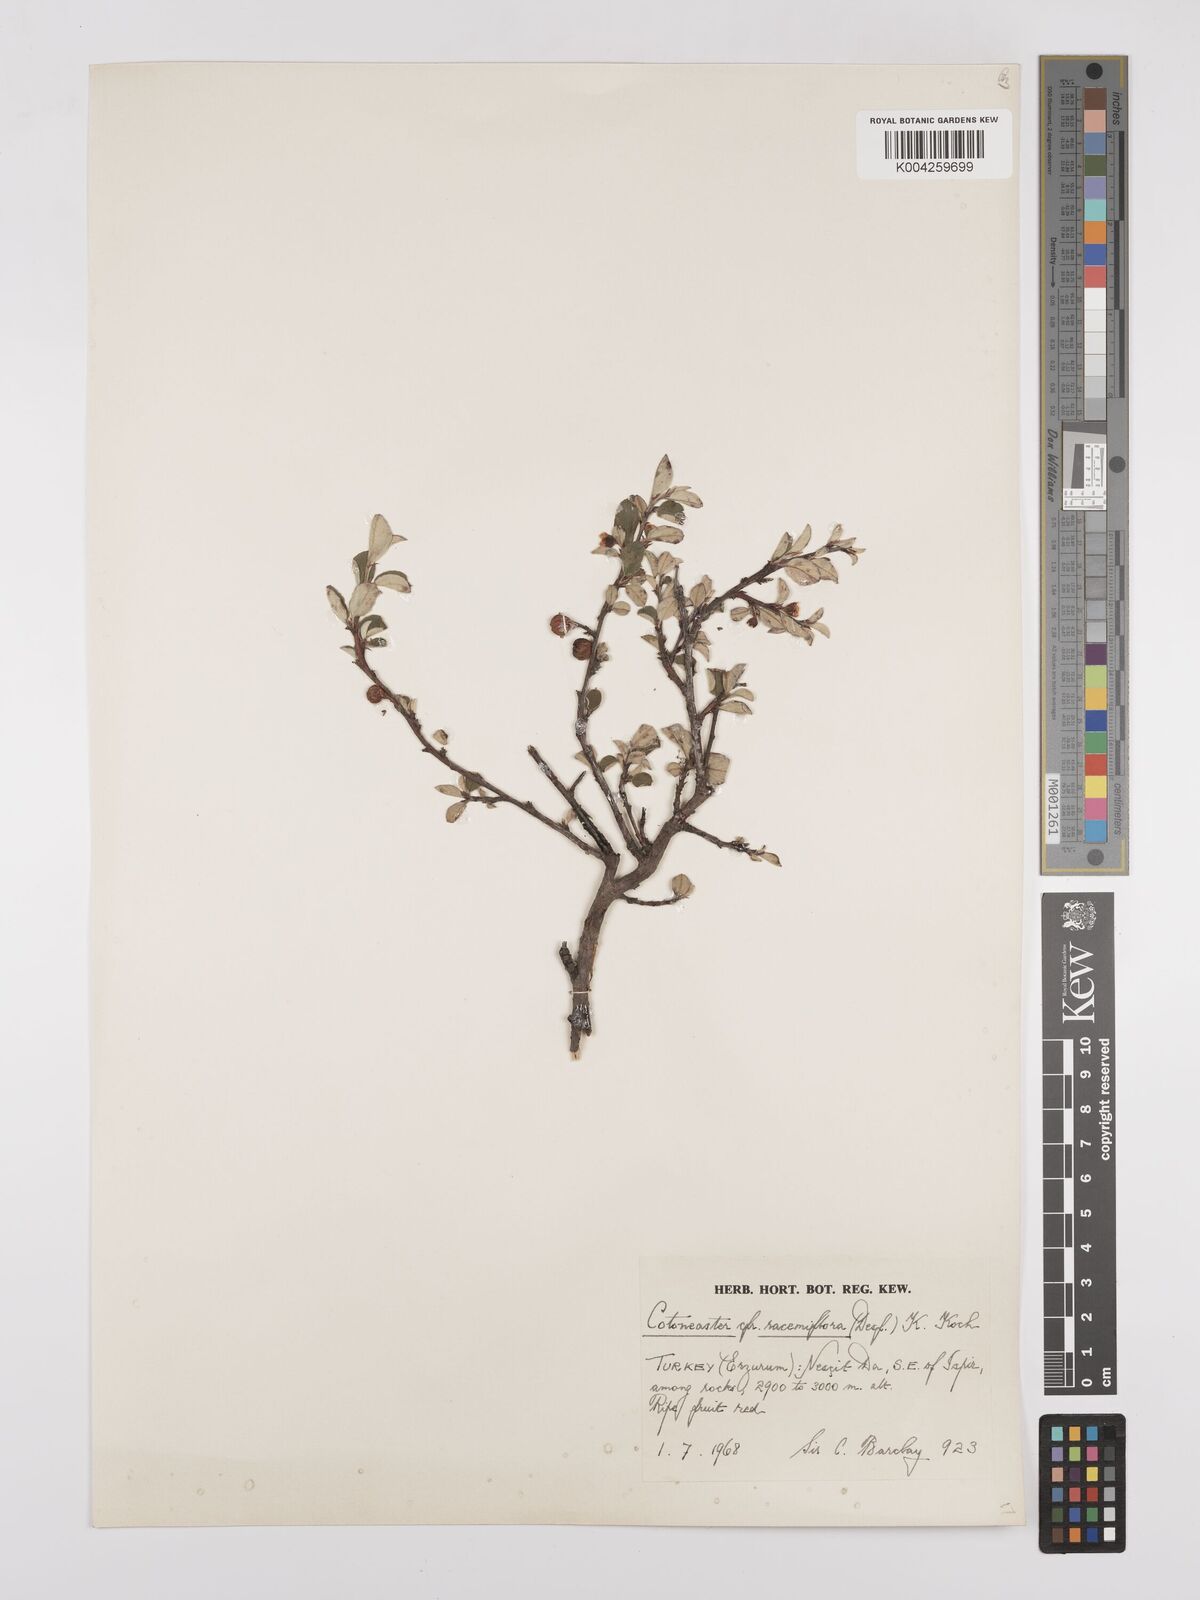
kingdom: Plantae
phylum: Tracheophyta
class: Magnoliopsida
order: Rosales
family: Rosaceae
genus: Cotoneaster
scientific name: Cotoneaster racemiflorus
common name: Cluster-flower cotoneaster
